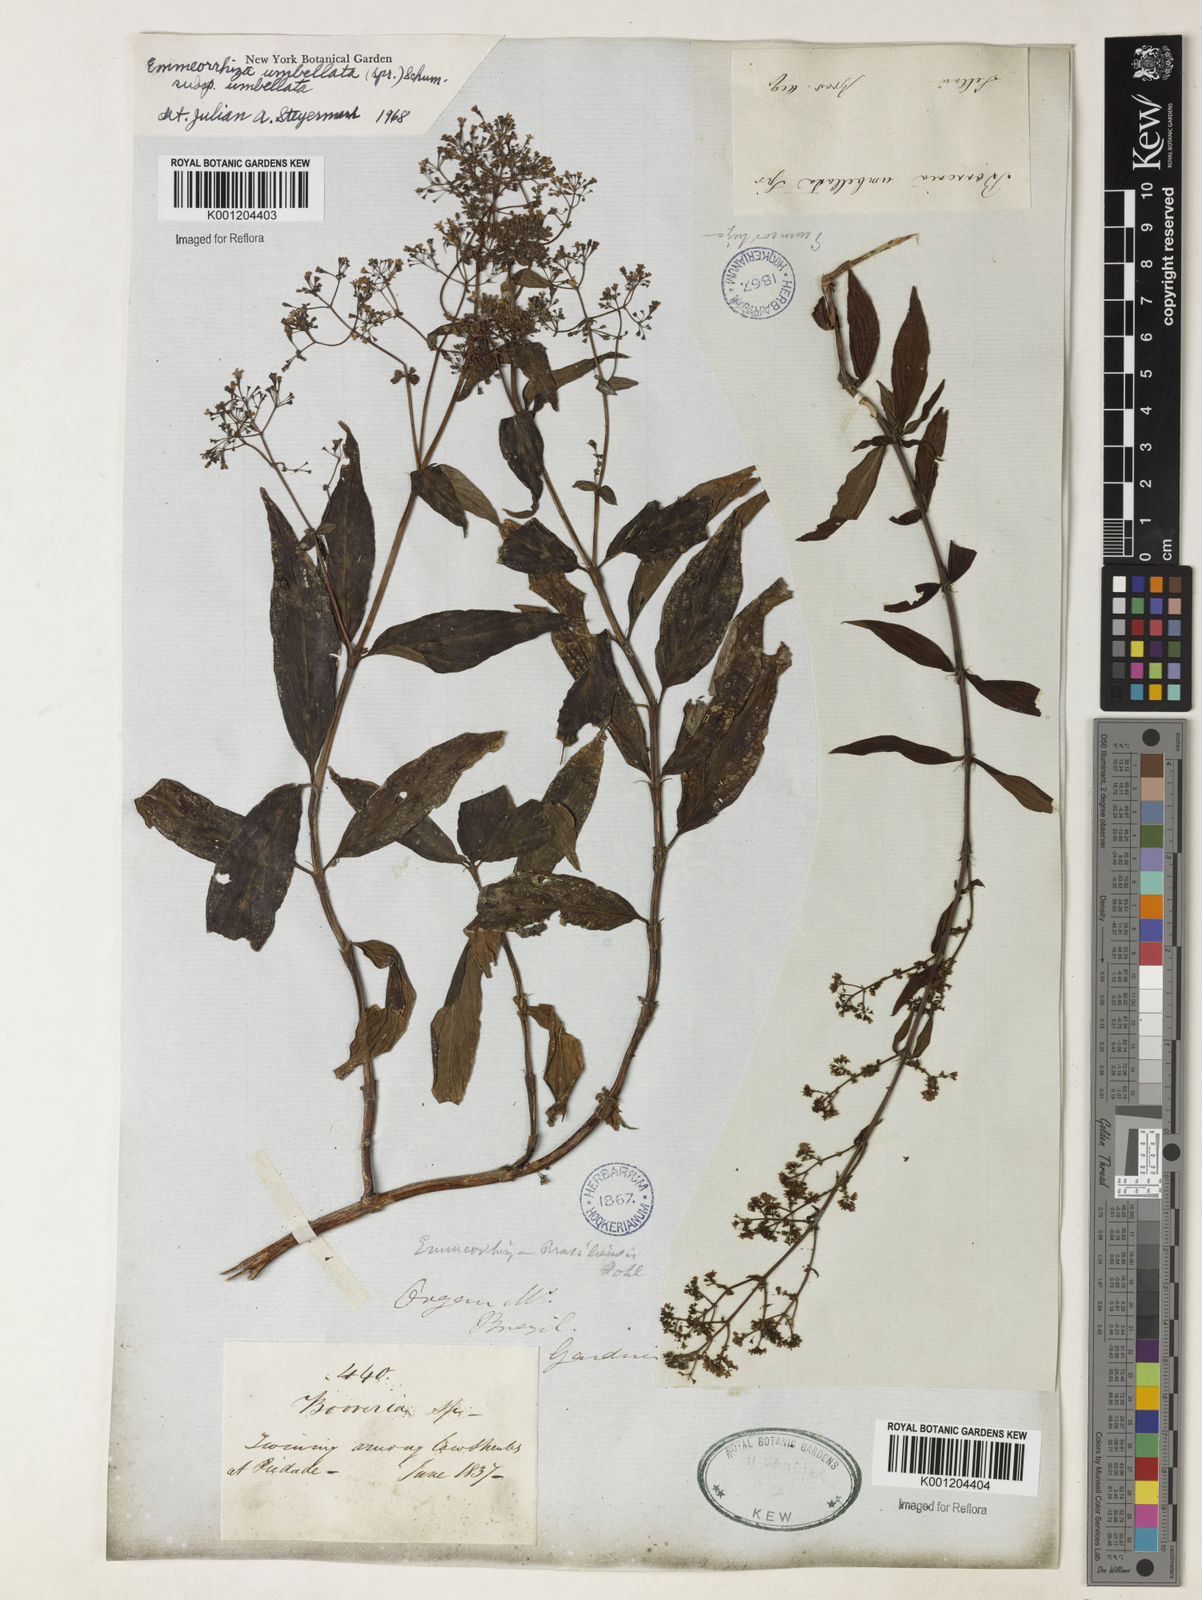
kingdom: Plantae
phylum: Tracheophyta
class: Magnoliopsida
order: Gentianales
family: Rubiaceae
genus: Emmeorhiza
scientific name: Emmeorhiza
